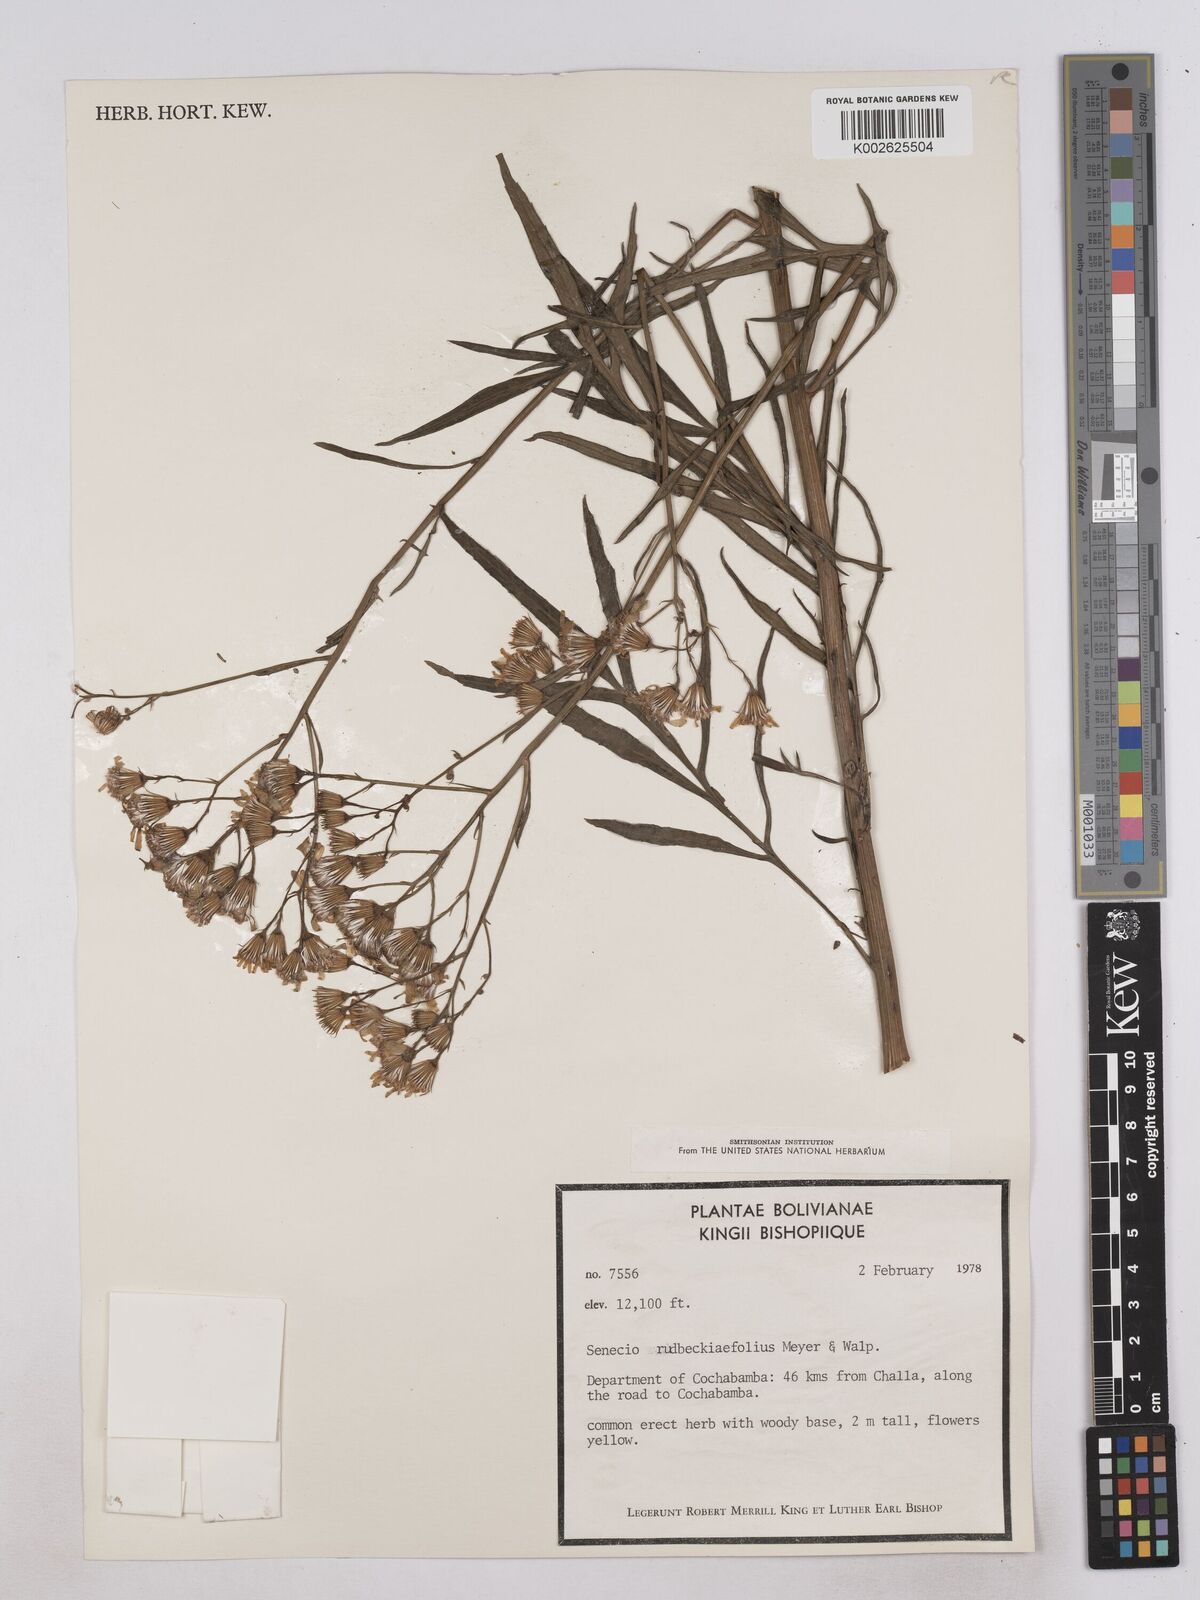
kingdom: Plantae
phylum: Tracheophyta
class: Magnoliopsida
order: Asterales
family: Asteraceae
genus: Senecio
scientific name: Senecio rudbeckiifolius
